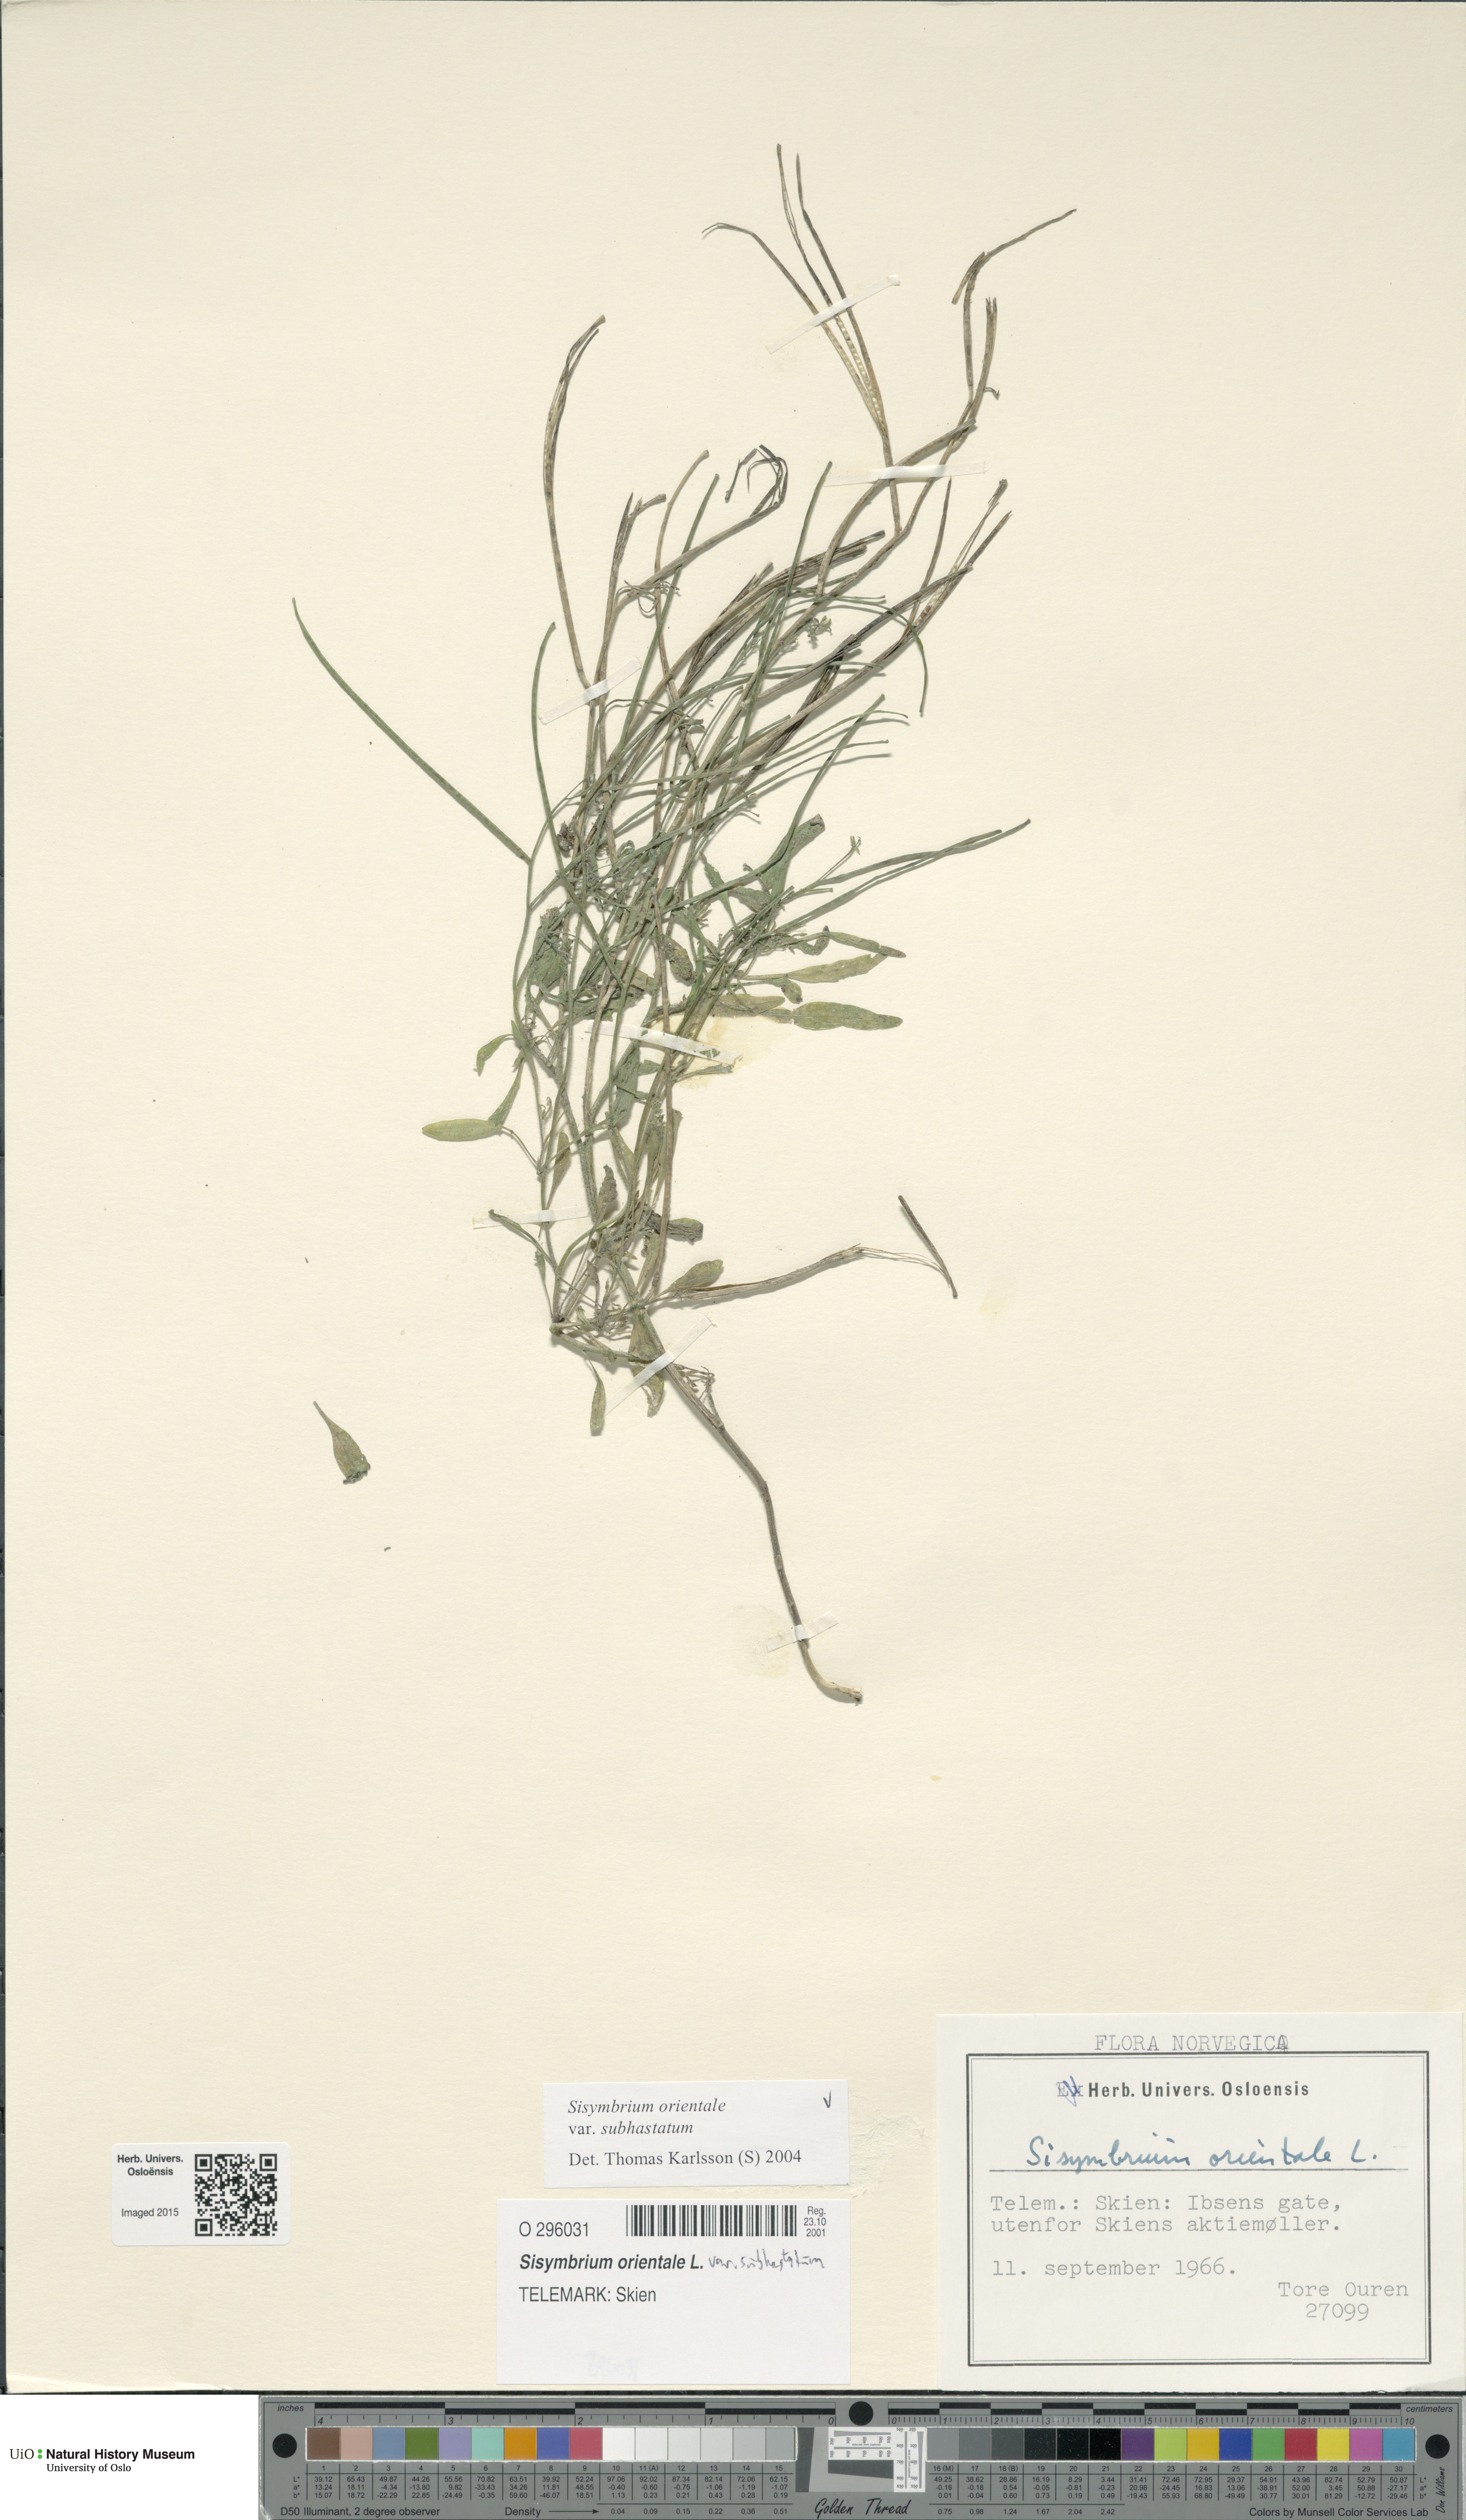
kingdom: Plantae
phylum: Tracheophyta
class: Magnoliopsida
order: Brassicales
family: Brassicaceae
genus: Sisymbrium
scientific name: Sisymbrium orientale
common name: Eastern rocket
